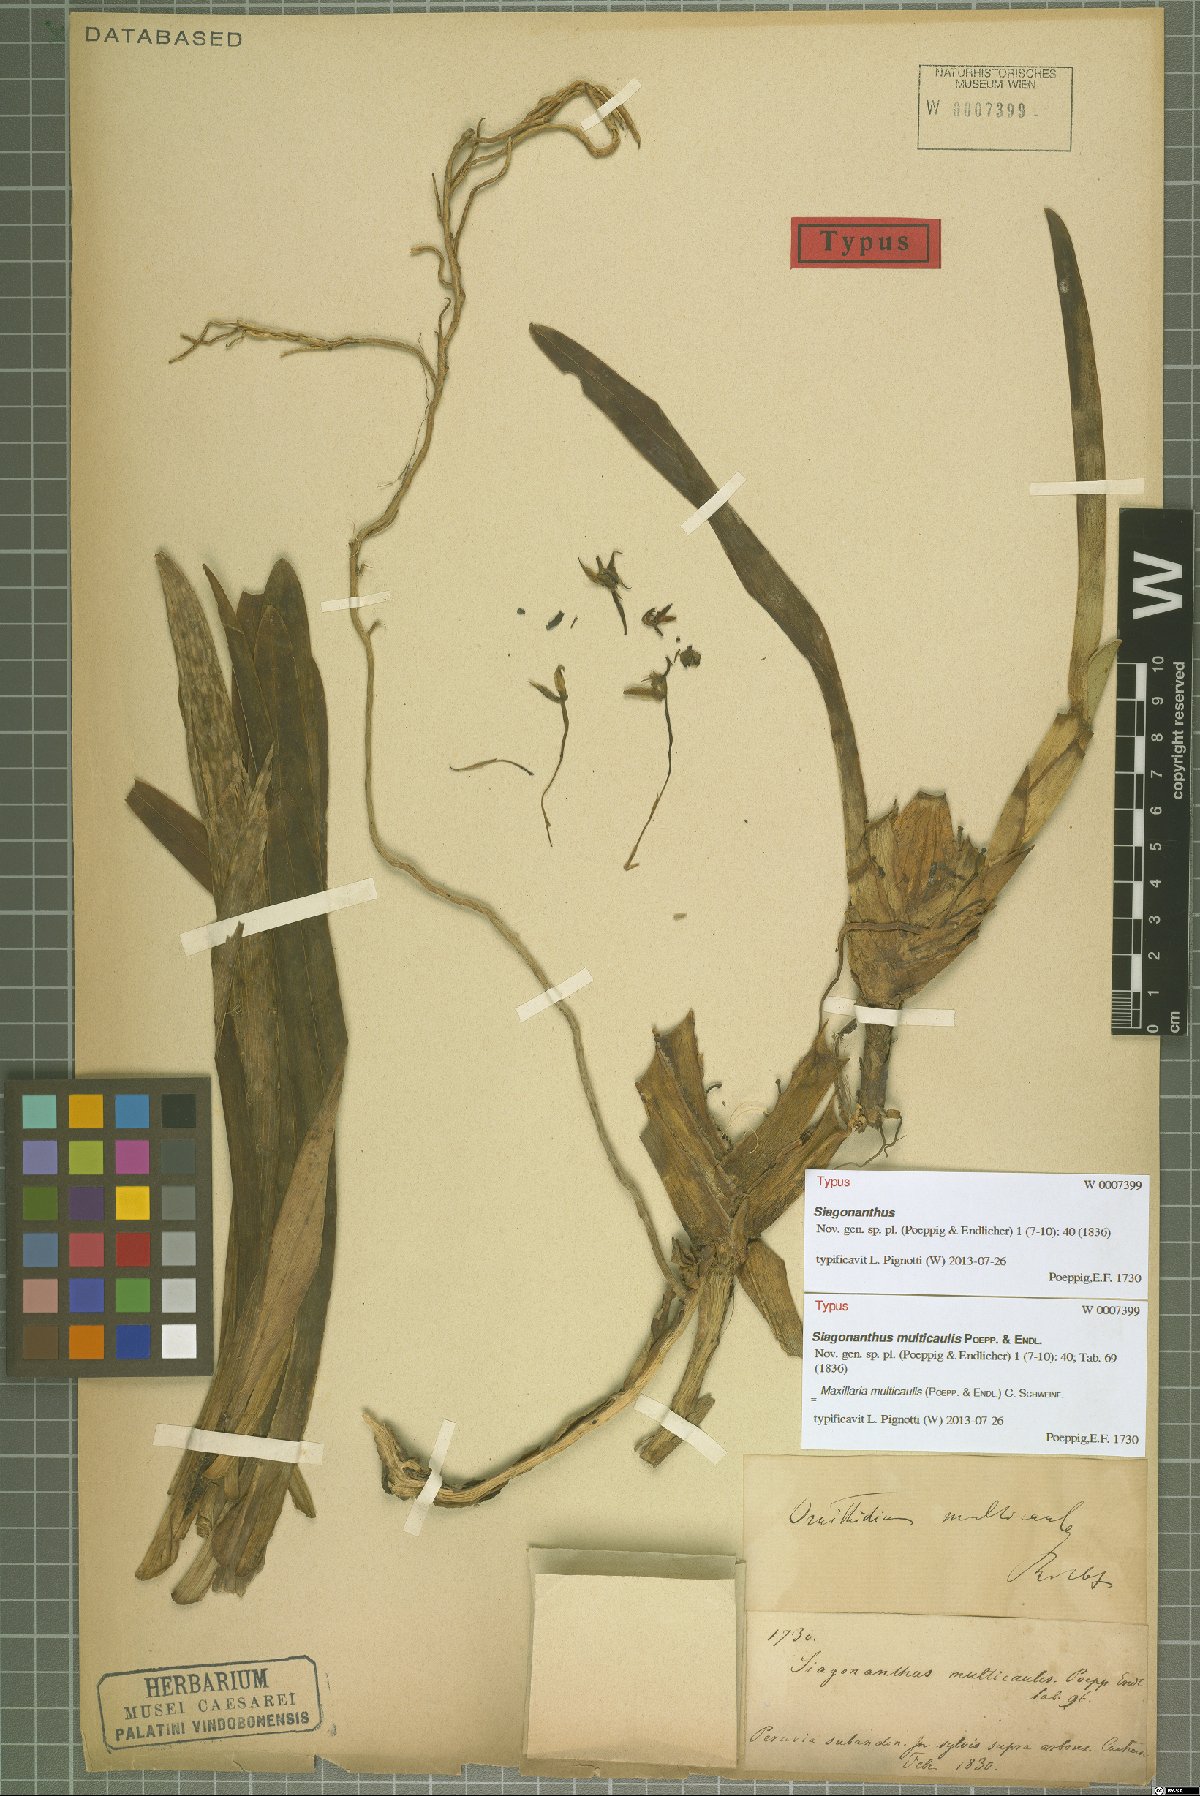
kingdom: Plantae
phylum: Tracheophyta
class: Liliopsida
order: Asparagales
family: Orchidaceae
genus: Maxillaria
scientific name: Maxillaria multicaulis
